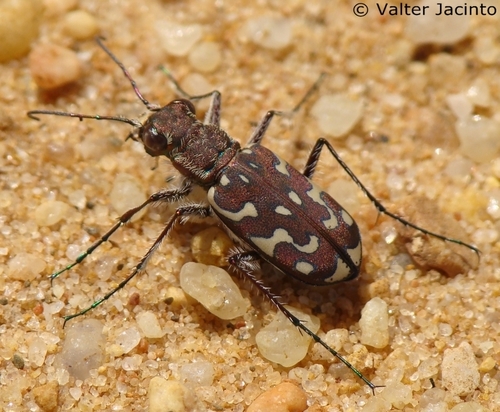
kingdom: Animalia
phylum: Arthropoda
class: Insecta
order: Coleoptera
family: Carabidae
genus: Lophyra
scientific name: Lophyra flexuosa
